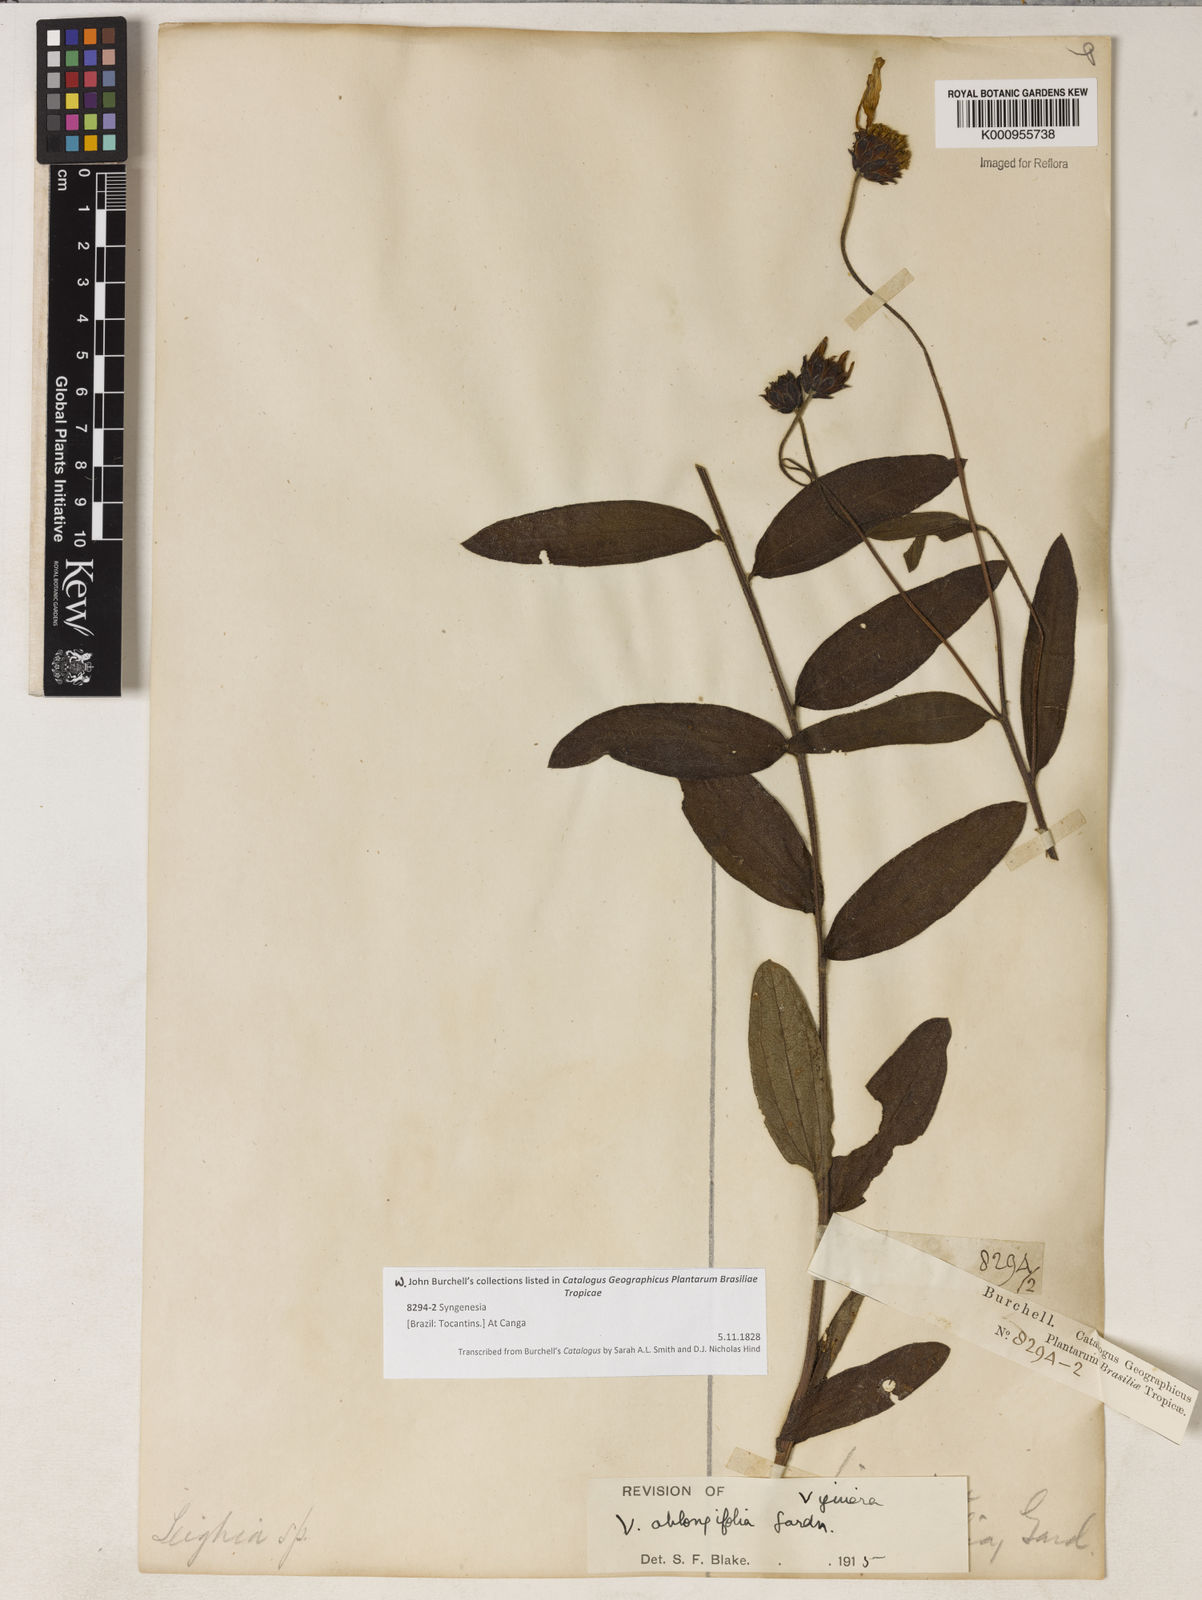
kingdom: Plantae
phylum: Tracheophyta
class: Magnoliopsida
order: Asterales
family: Asteraceae
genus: Aldama
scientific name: Aldama oblongifolia
